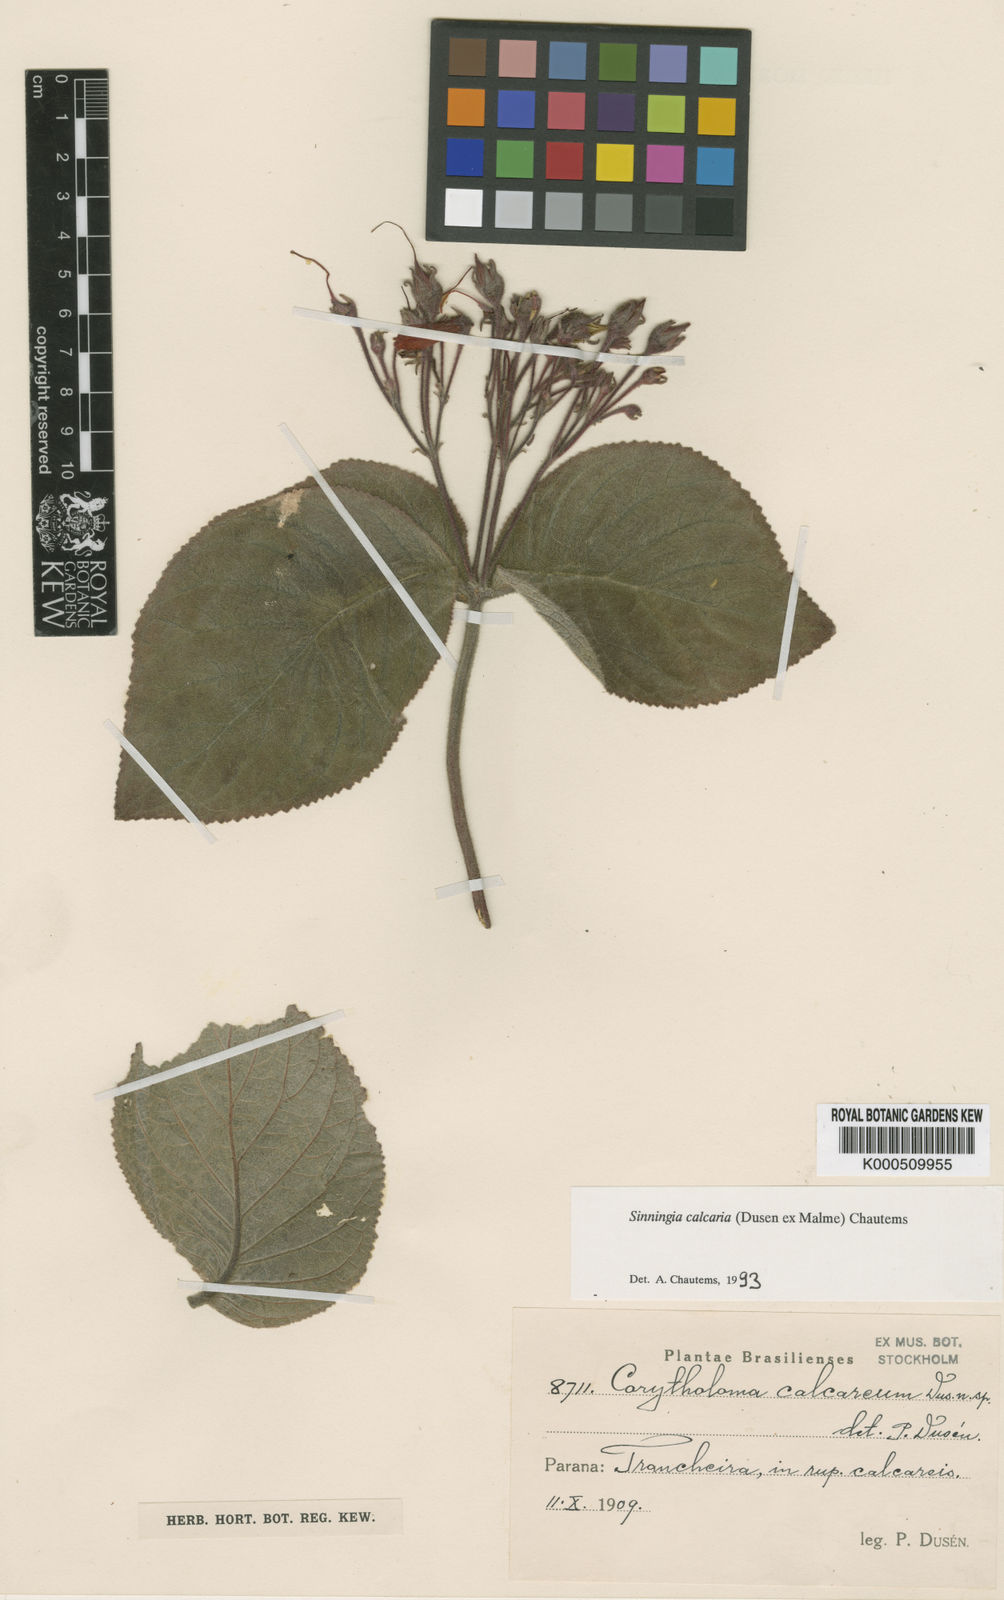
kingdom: Plantae
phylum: Tracheophyta
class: Magnoliopsida
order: Lamiales
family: Gesneriaceae
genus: Sinningia
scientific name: Sinningia
